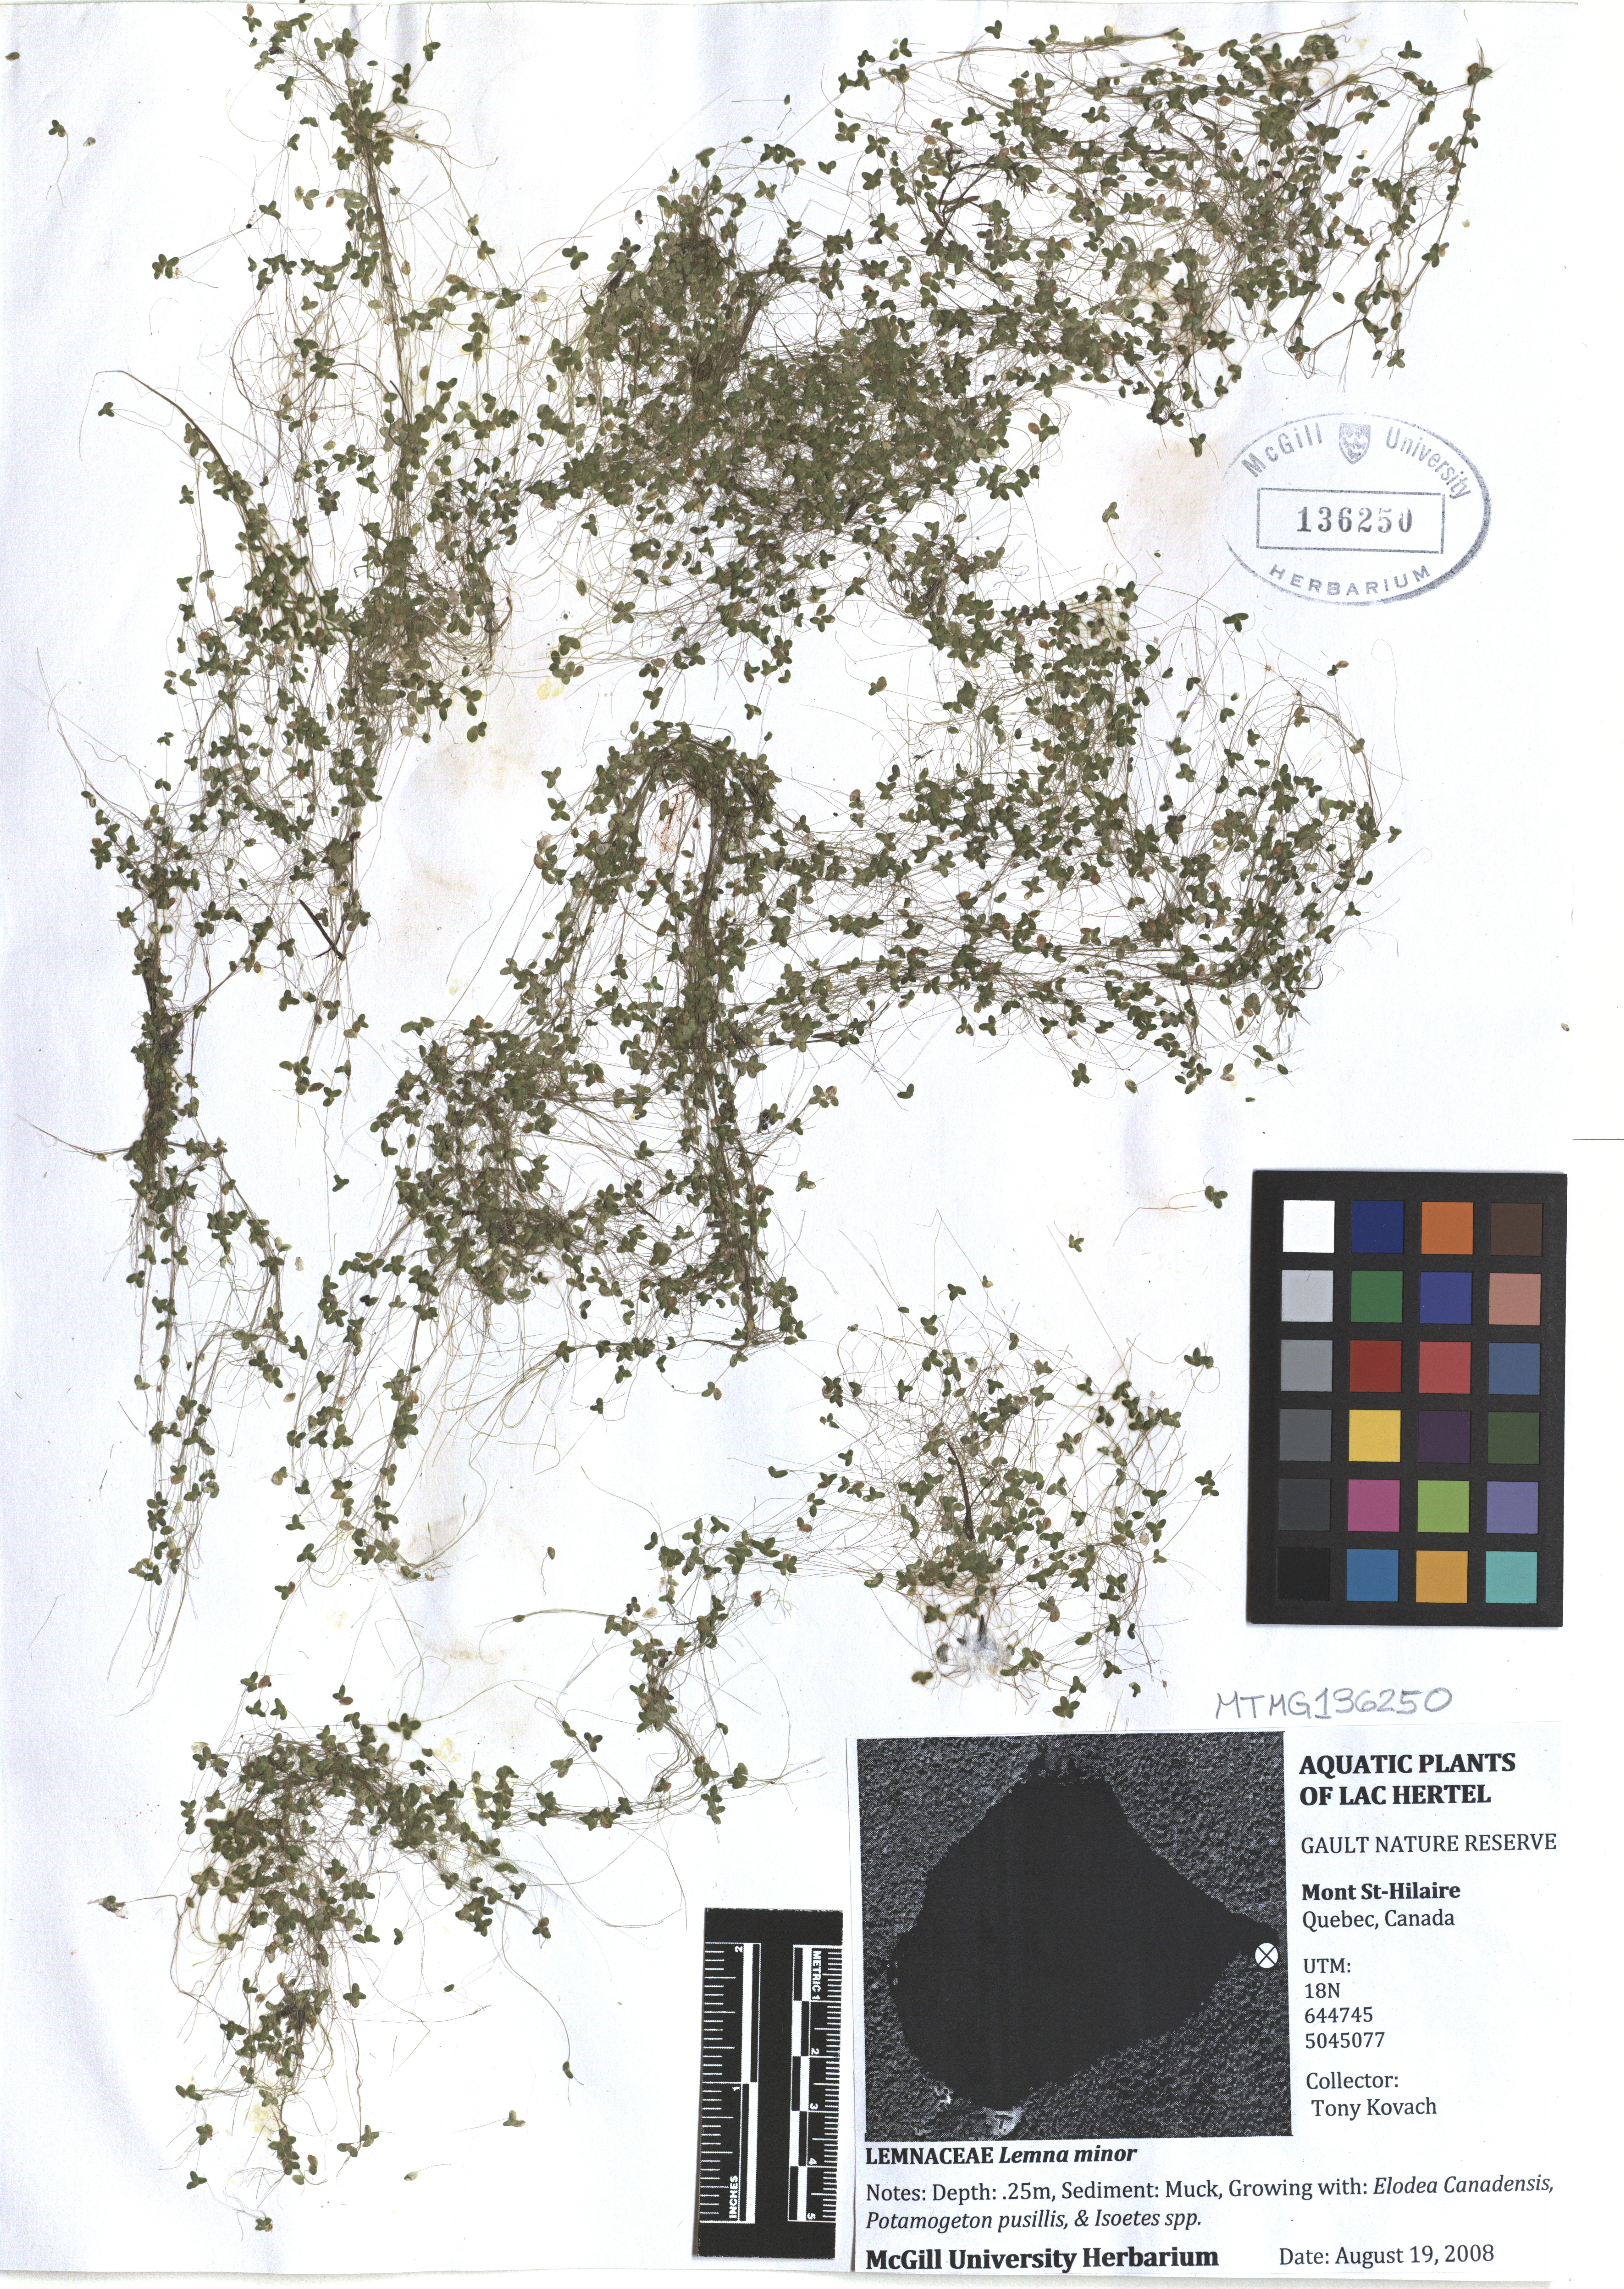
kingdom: Plantae
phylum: Tracheophyta
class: Liliopsida
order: Alismatales
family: Araceae
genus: Lemna
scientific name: Lemna minor
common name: Common duckweed
